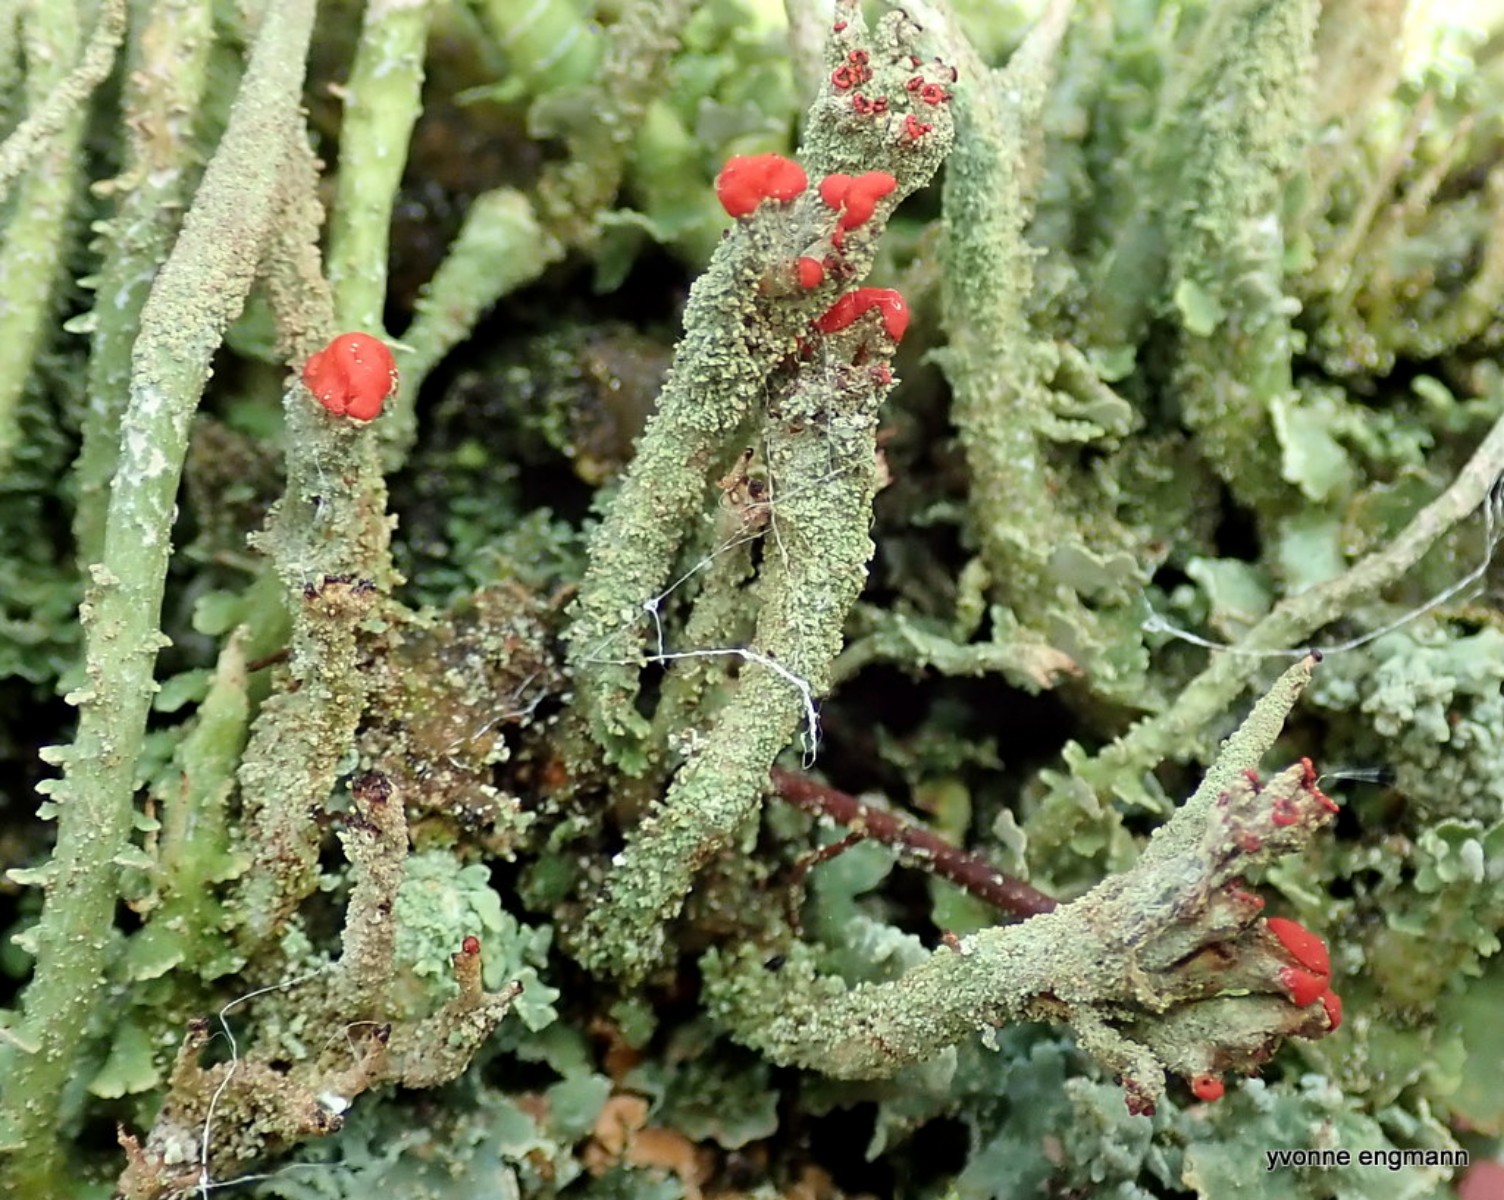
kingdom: Fungi
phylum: Ascomycota
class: Lecanoromycetes
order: Lecanorales
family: Cladoniaceae
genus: Cladonia
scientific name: Cladonia floerkeana
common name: lakrød bægerlav
